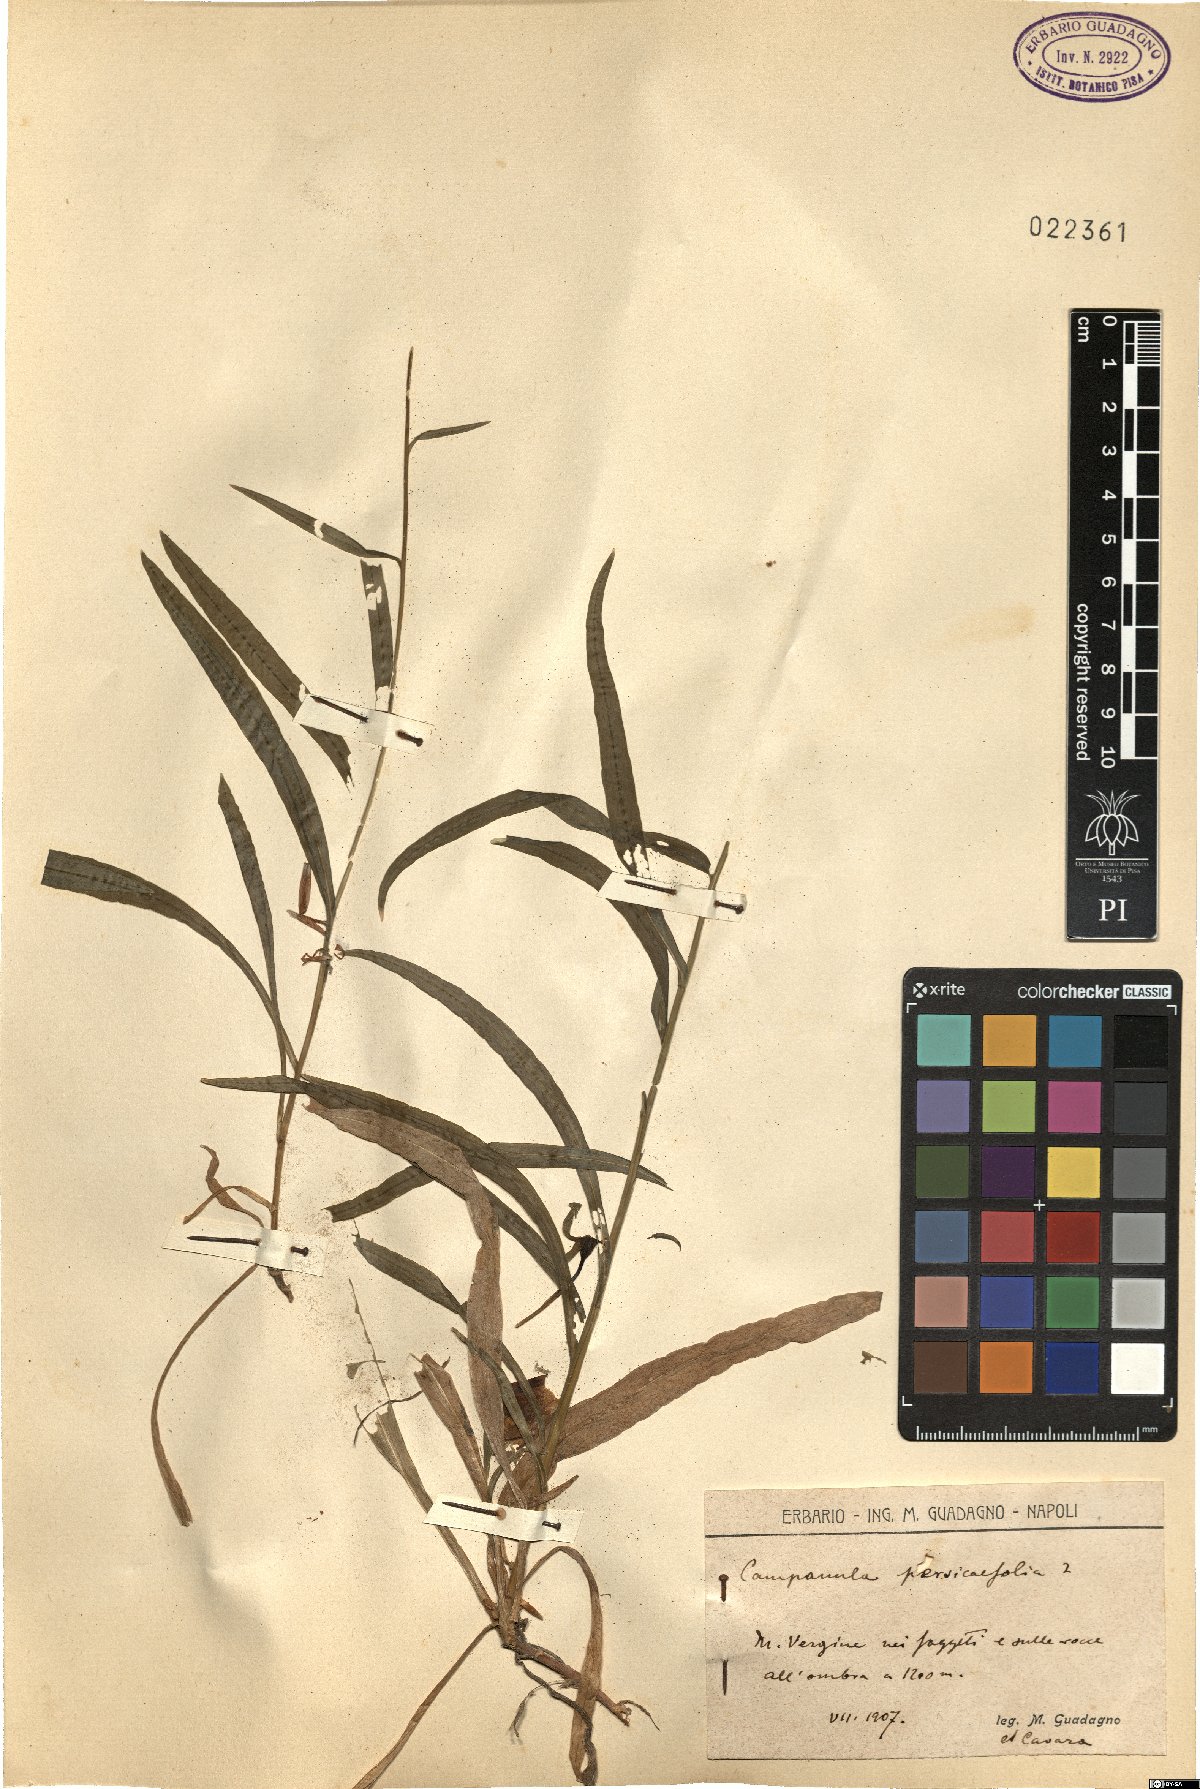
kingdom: Plantae
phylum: Tracheophyta
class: Magnoliopsida
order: Asterales
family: Campanulaceae
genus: Campanula
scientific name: Campanula persicifolia
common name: Peach-leaved bellflower
